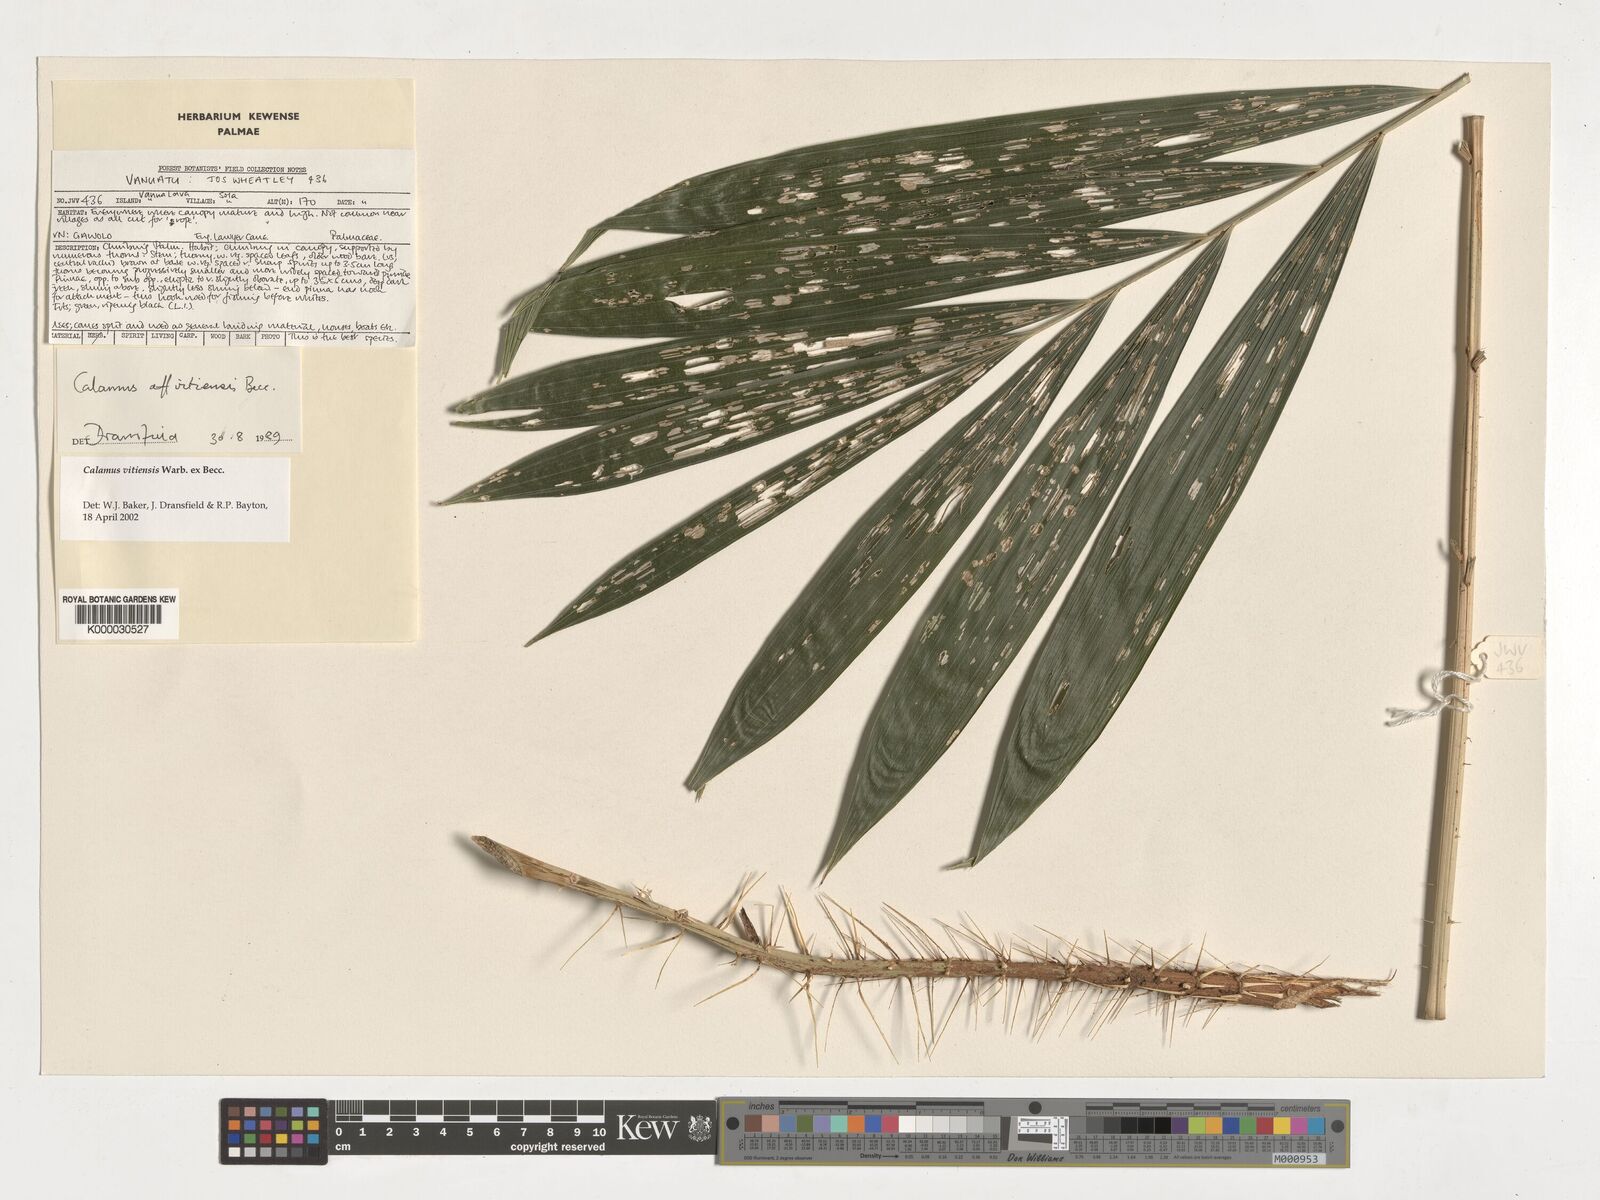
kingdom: Plantae
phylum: Tracheophyta
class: Liliopsida
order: Arecales
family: Arecaceae
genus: Calamus
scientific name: Calamus vitiensis
